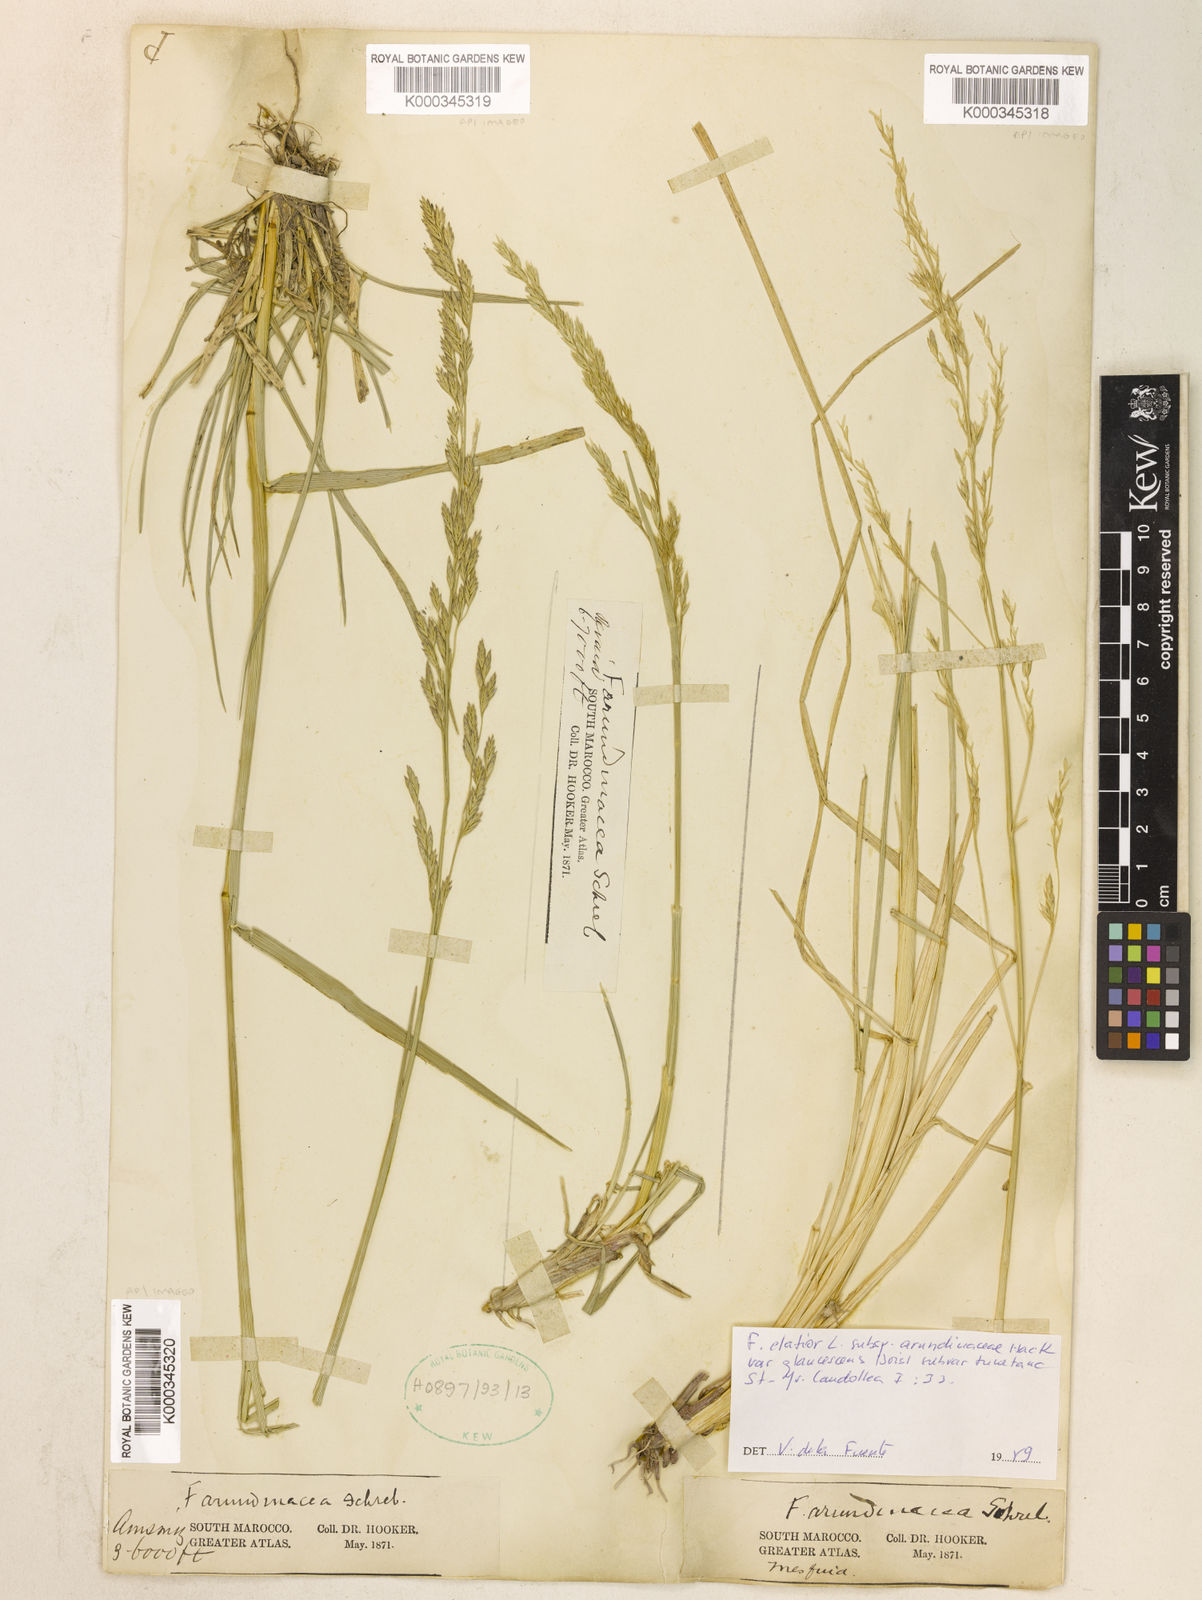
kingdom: Plantae
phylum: Tracheophyta
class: Liliopsida
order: Poales
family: Poaceae
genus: Lolium
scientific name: Lolium mediterraneum
